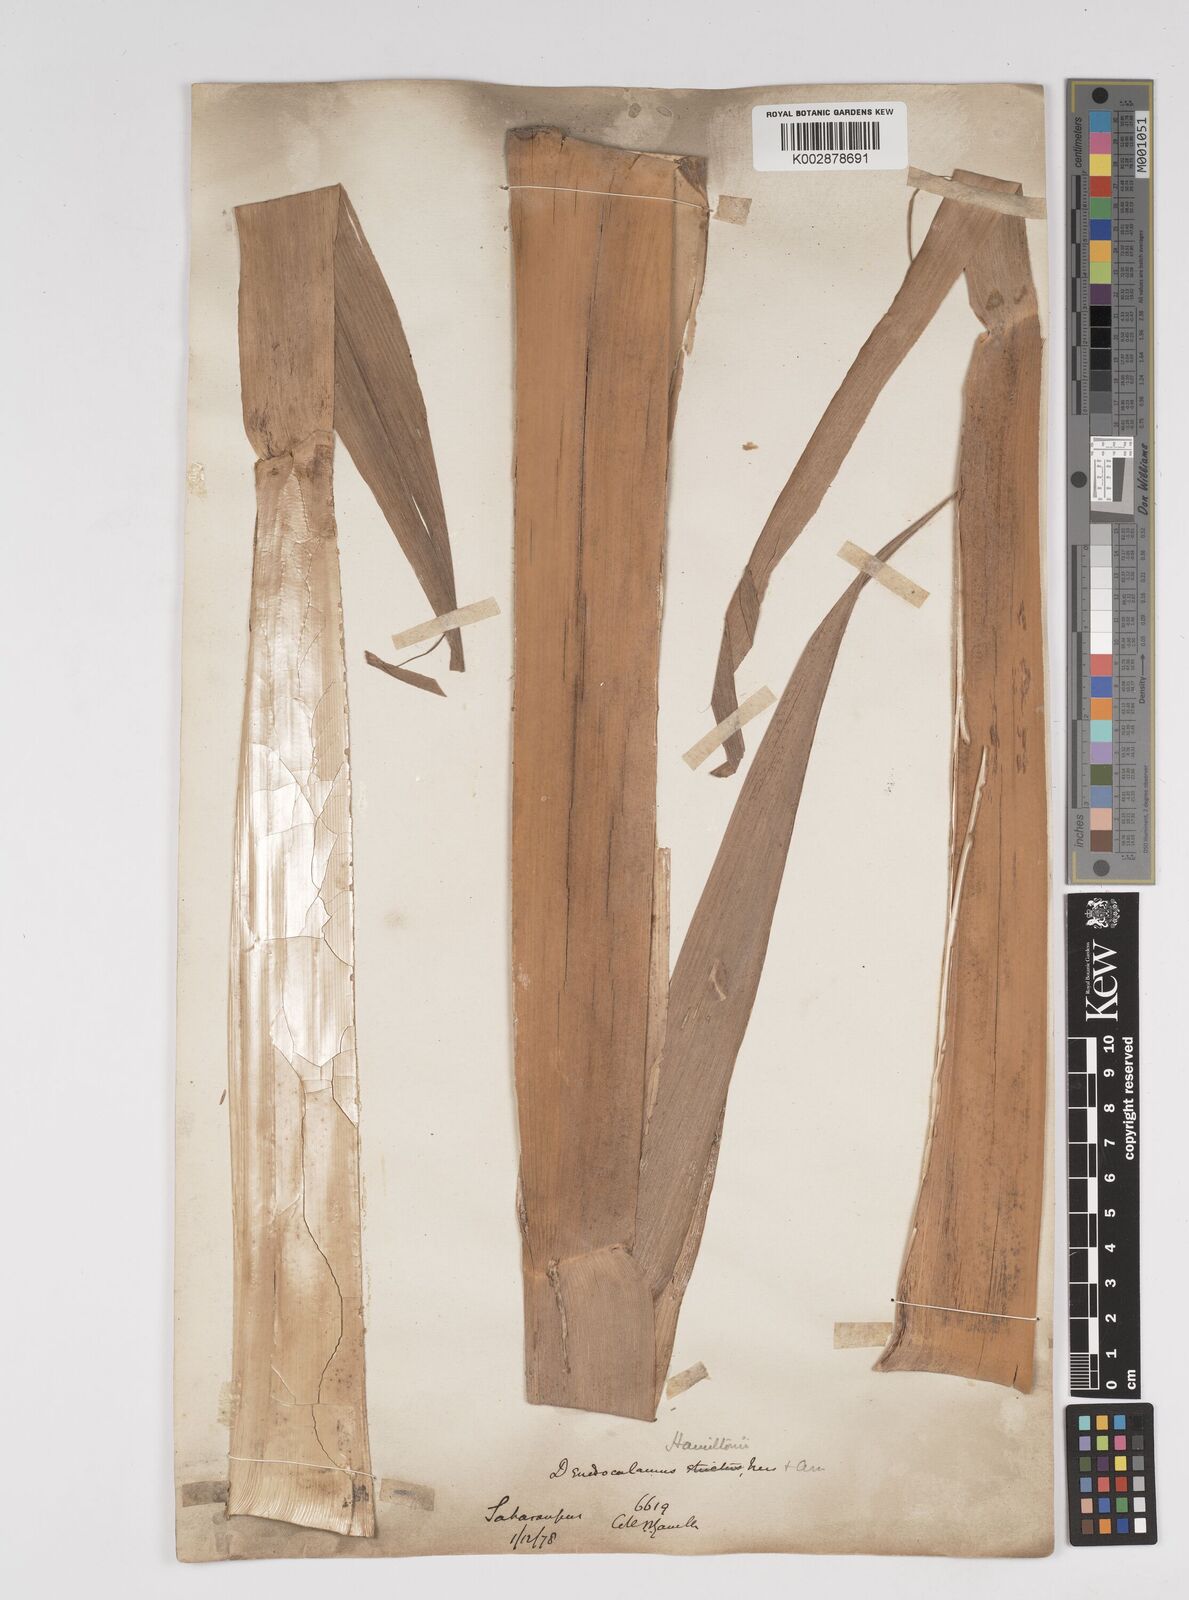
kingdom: Plantae
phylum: Tracheophyta
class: Liliopsida
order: Poales
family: Poaceae
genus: Dendrocalamus
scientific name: Dendrocalamus hamiltonii
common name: Tama bamboo
